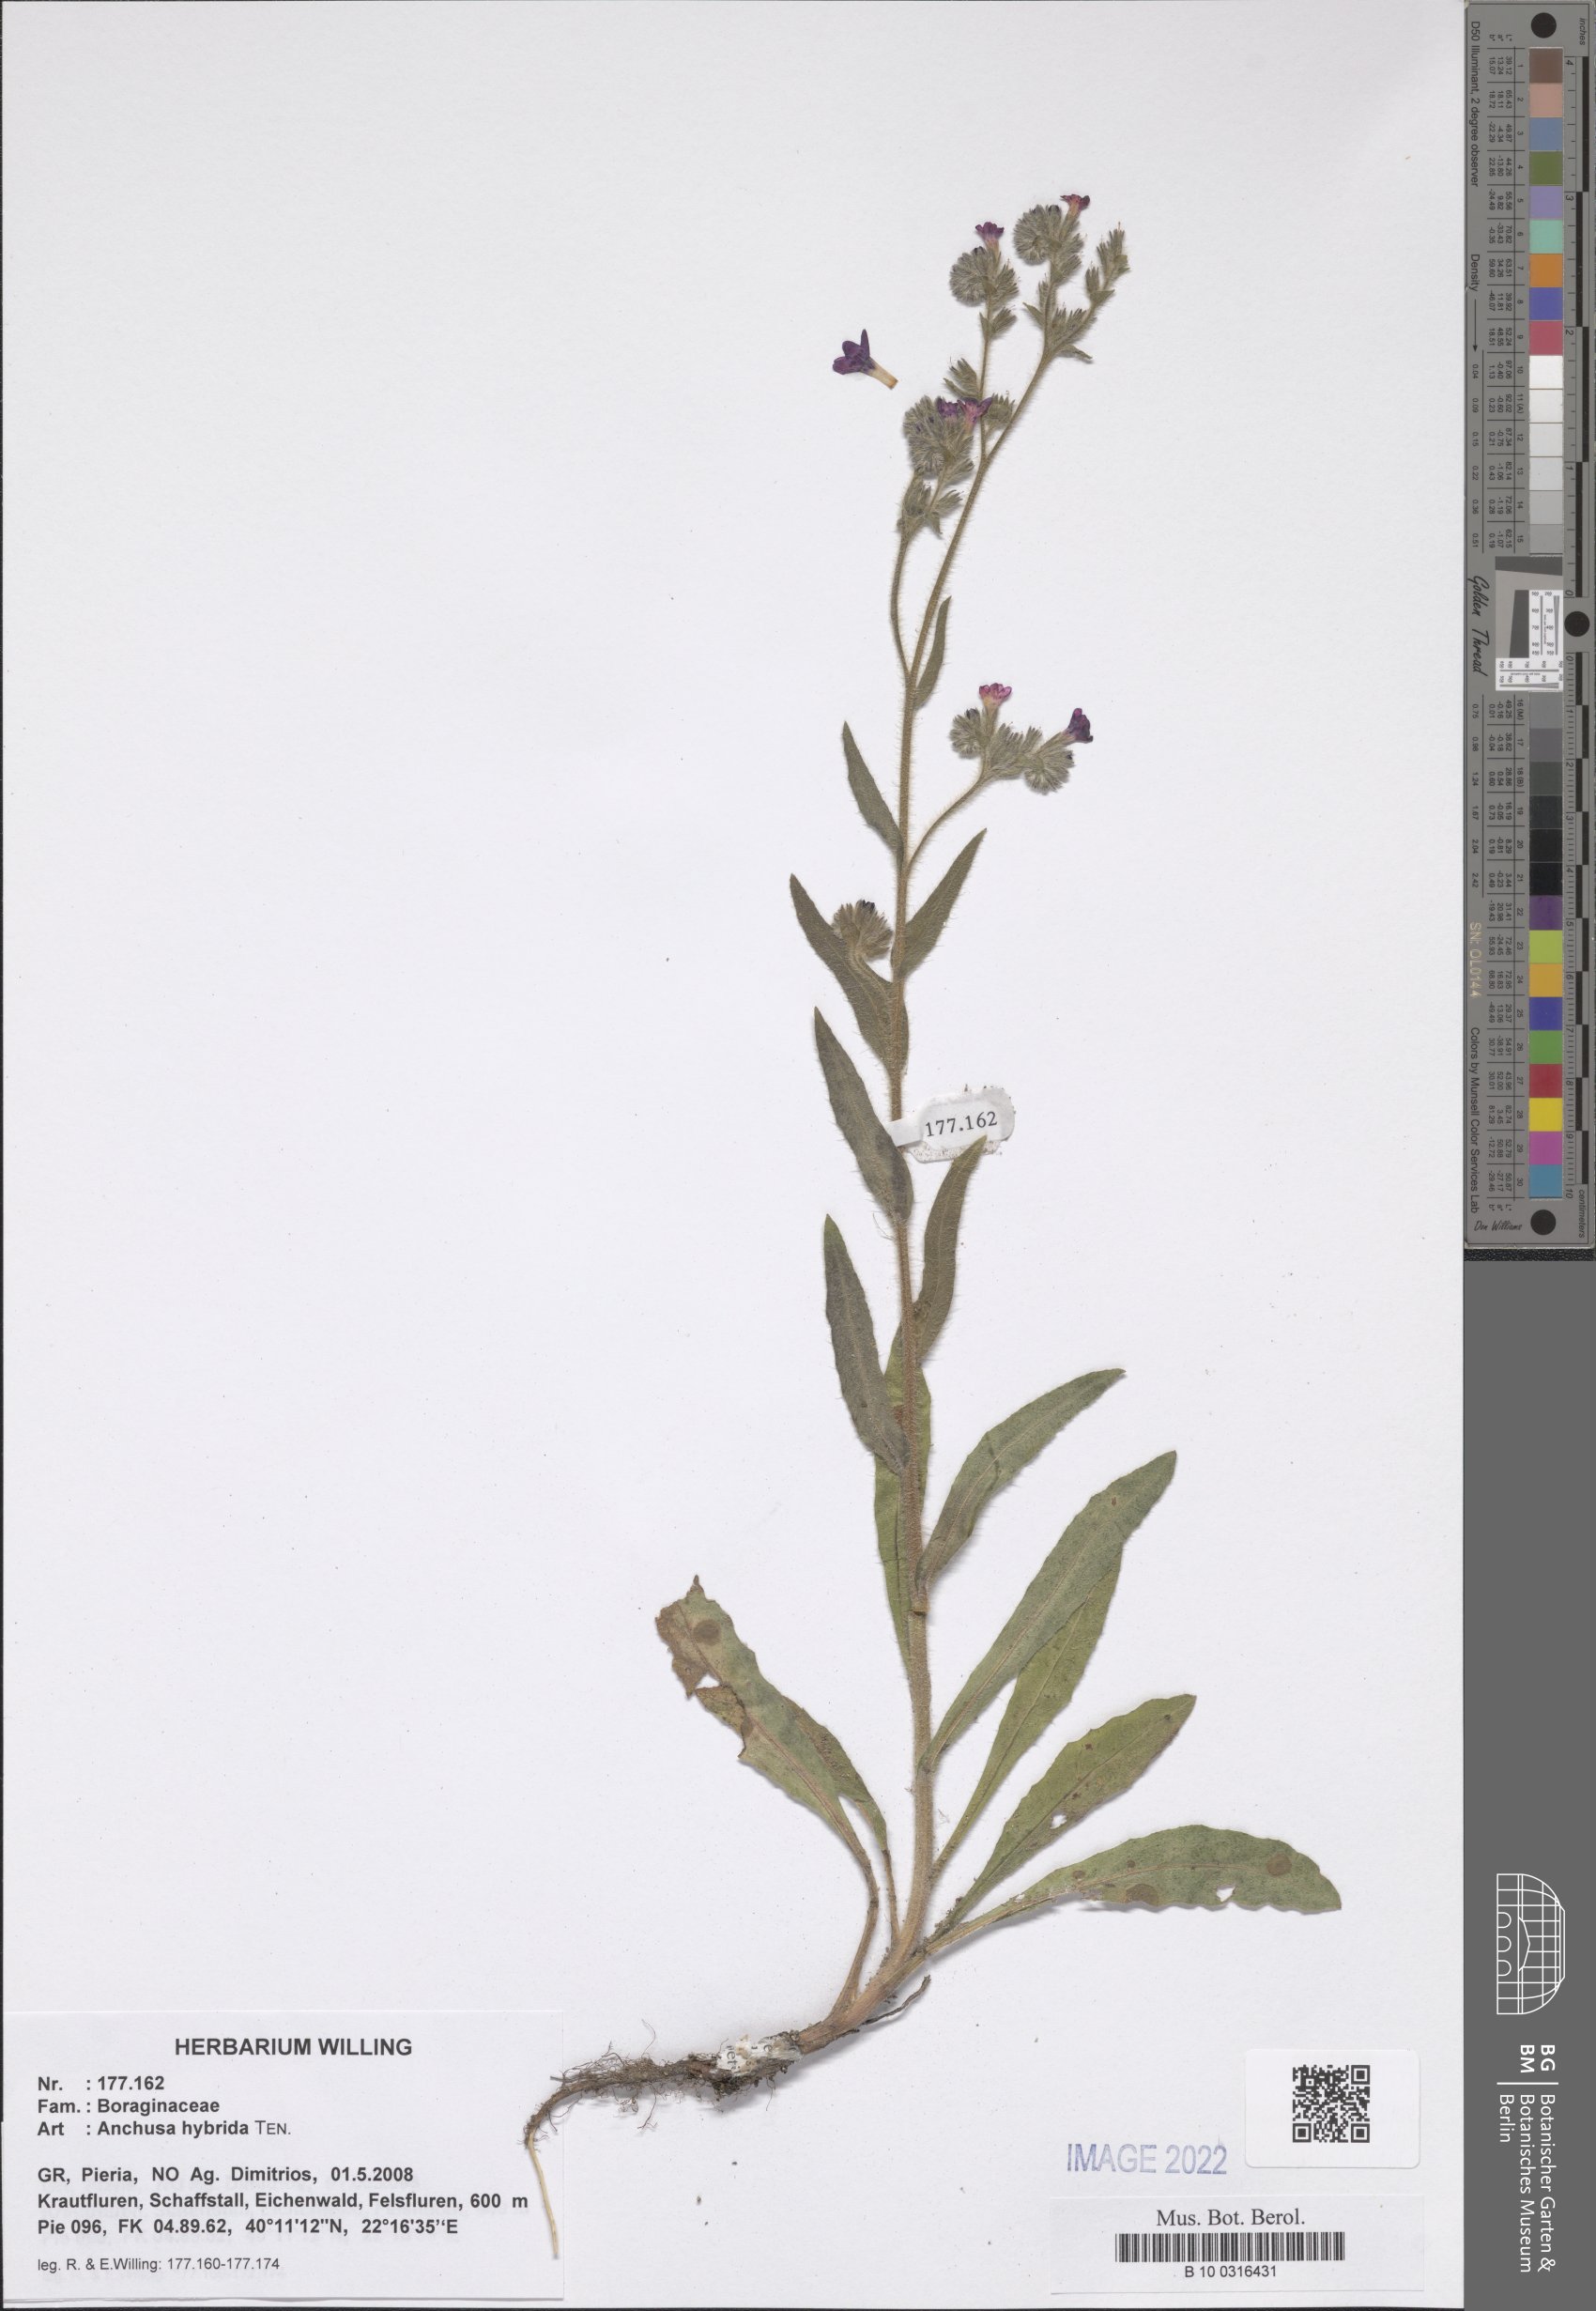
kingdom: Plantae
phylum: Tracheophyta
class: Magnoliopsida
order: Boraginales
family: Boraginaceae
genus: Anchusa
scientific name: Anchusa hybrida
